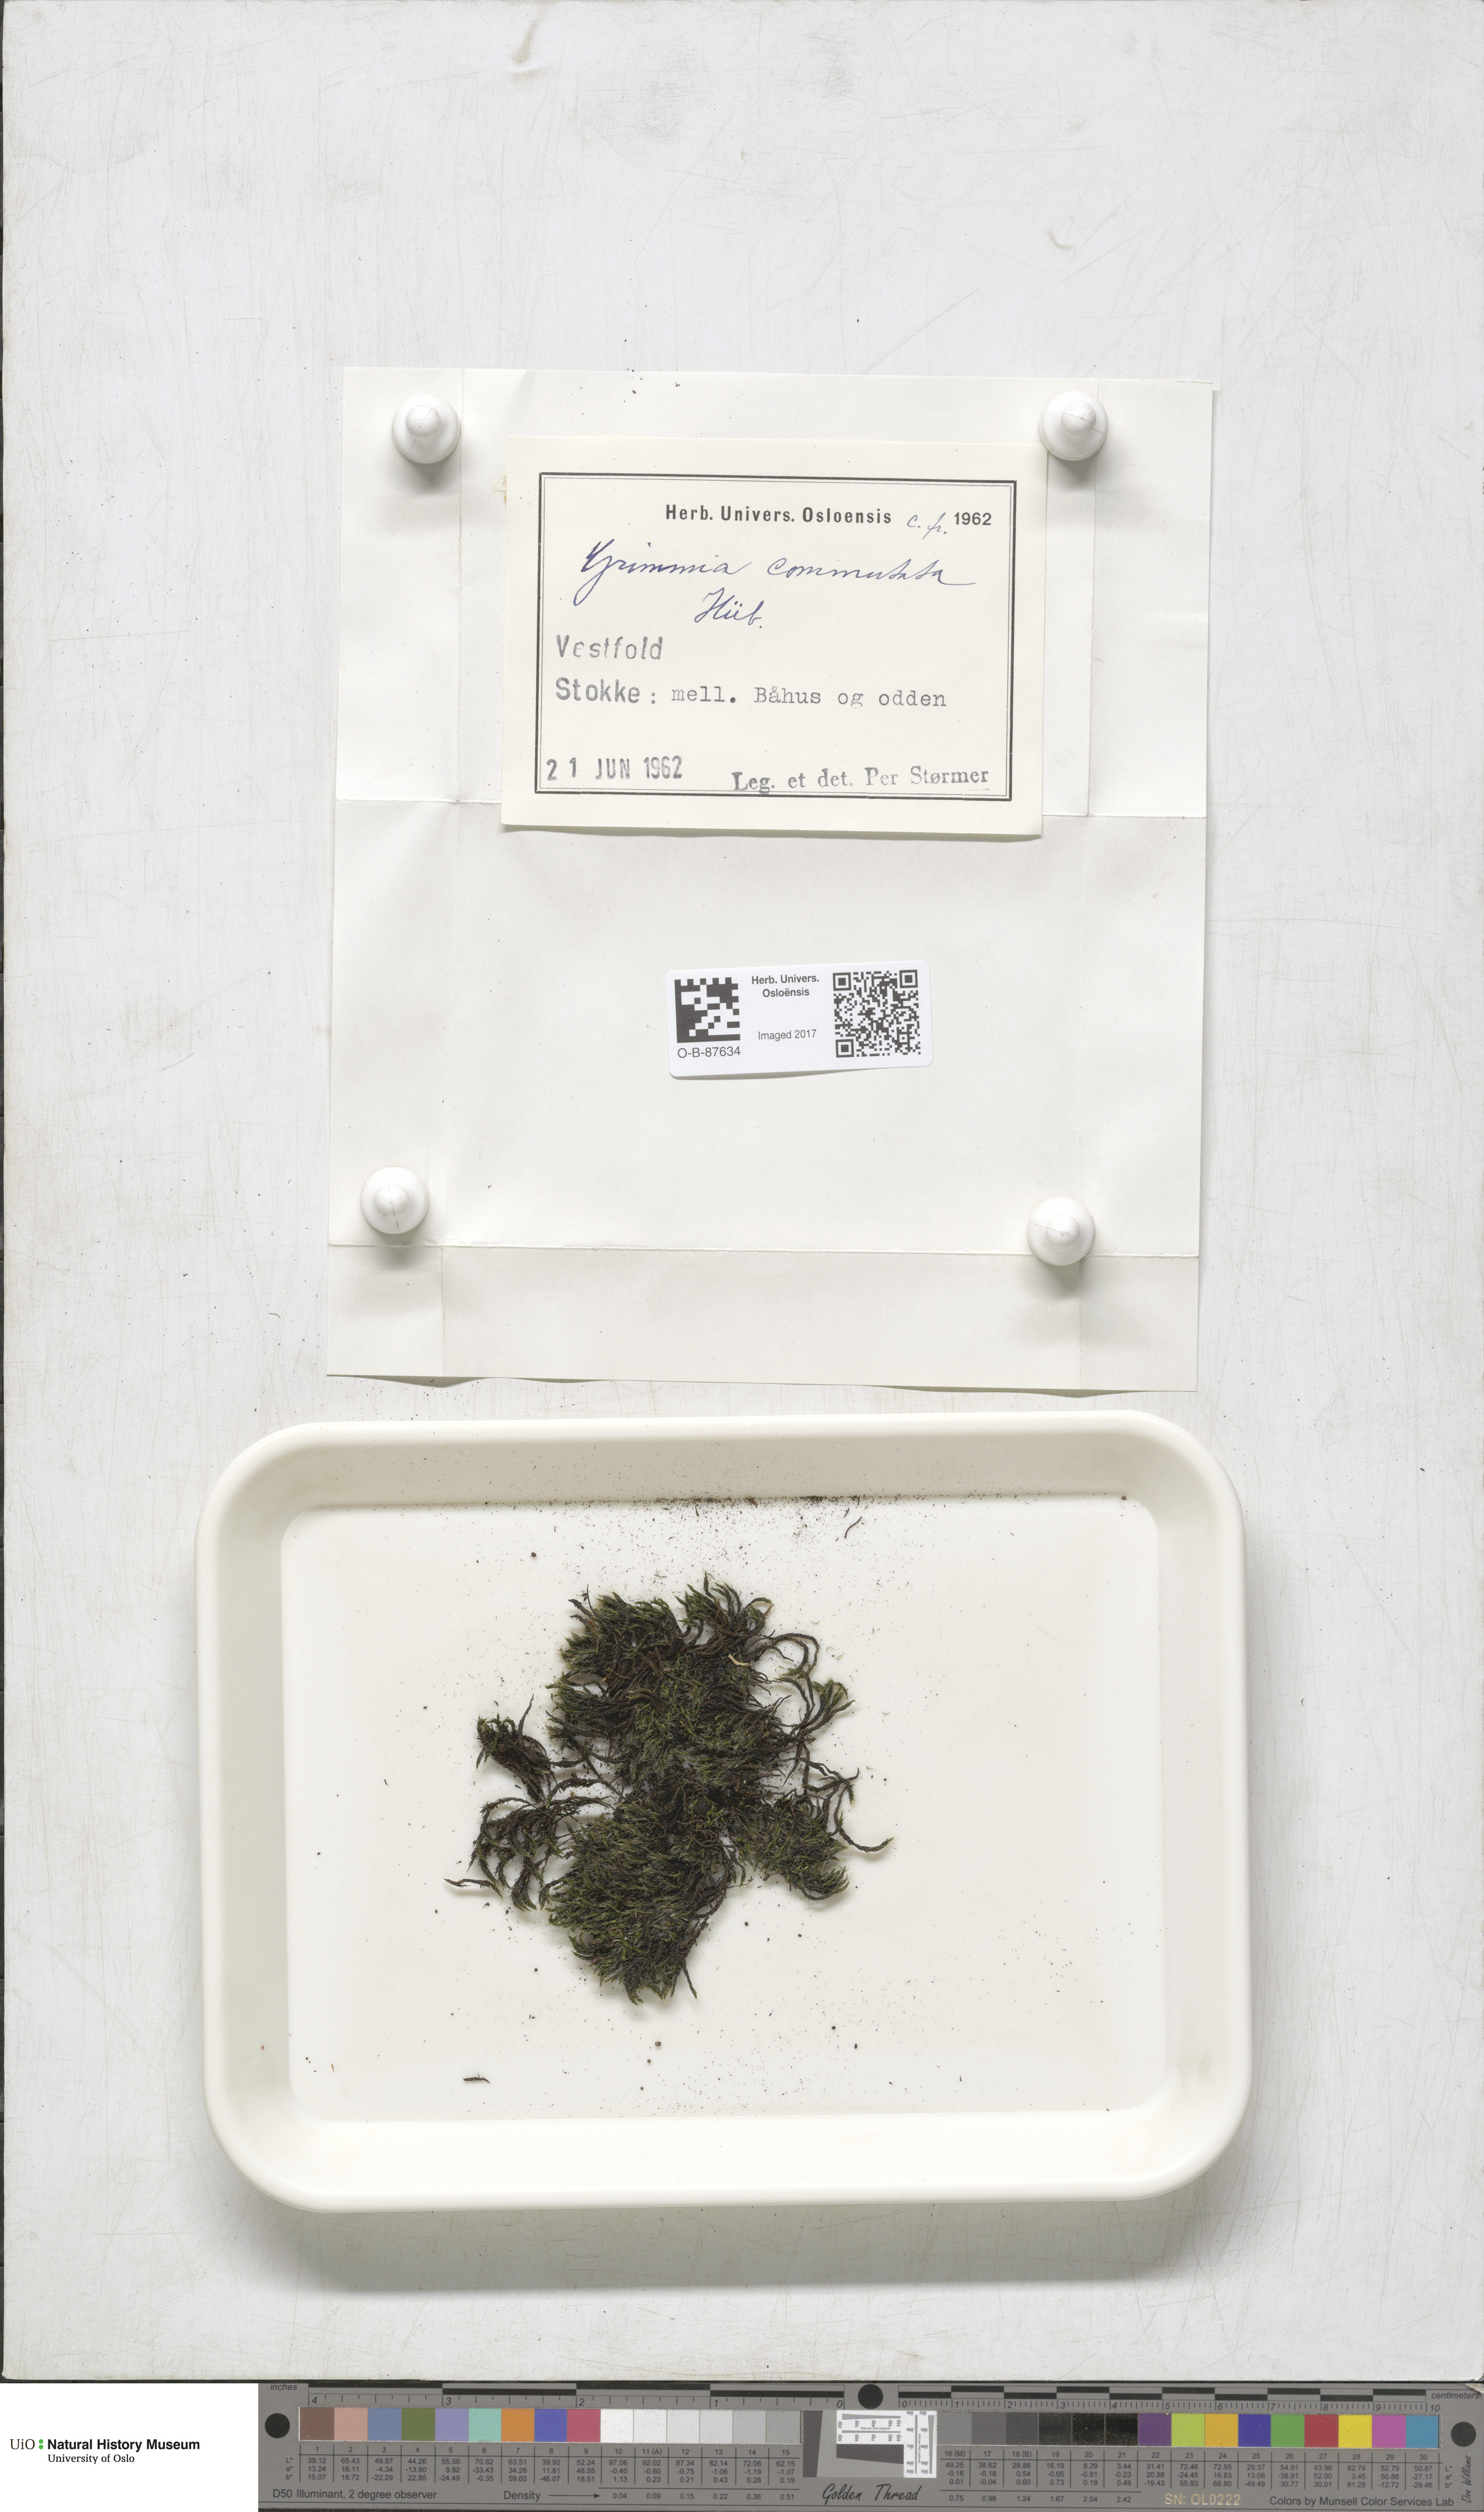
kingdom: Plantae
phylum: Bryophyta
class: Bryopsida
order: Grimmiales
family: Grimmiaceae
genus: Grimmia
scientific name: Grimmia ovalis
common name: Oval grimmia
